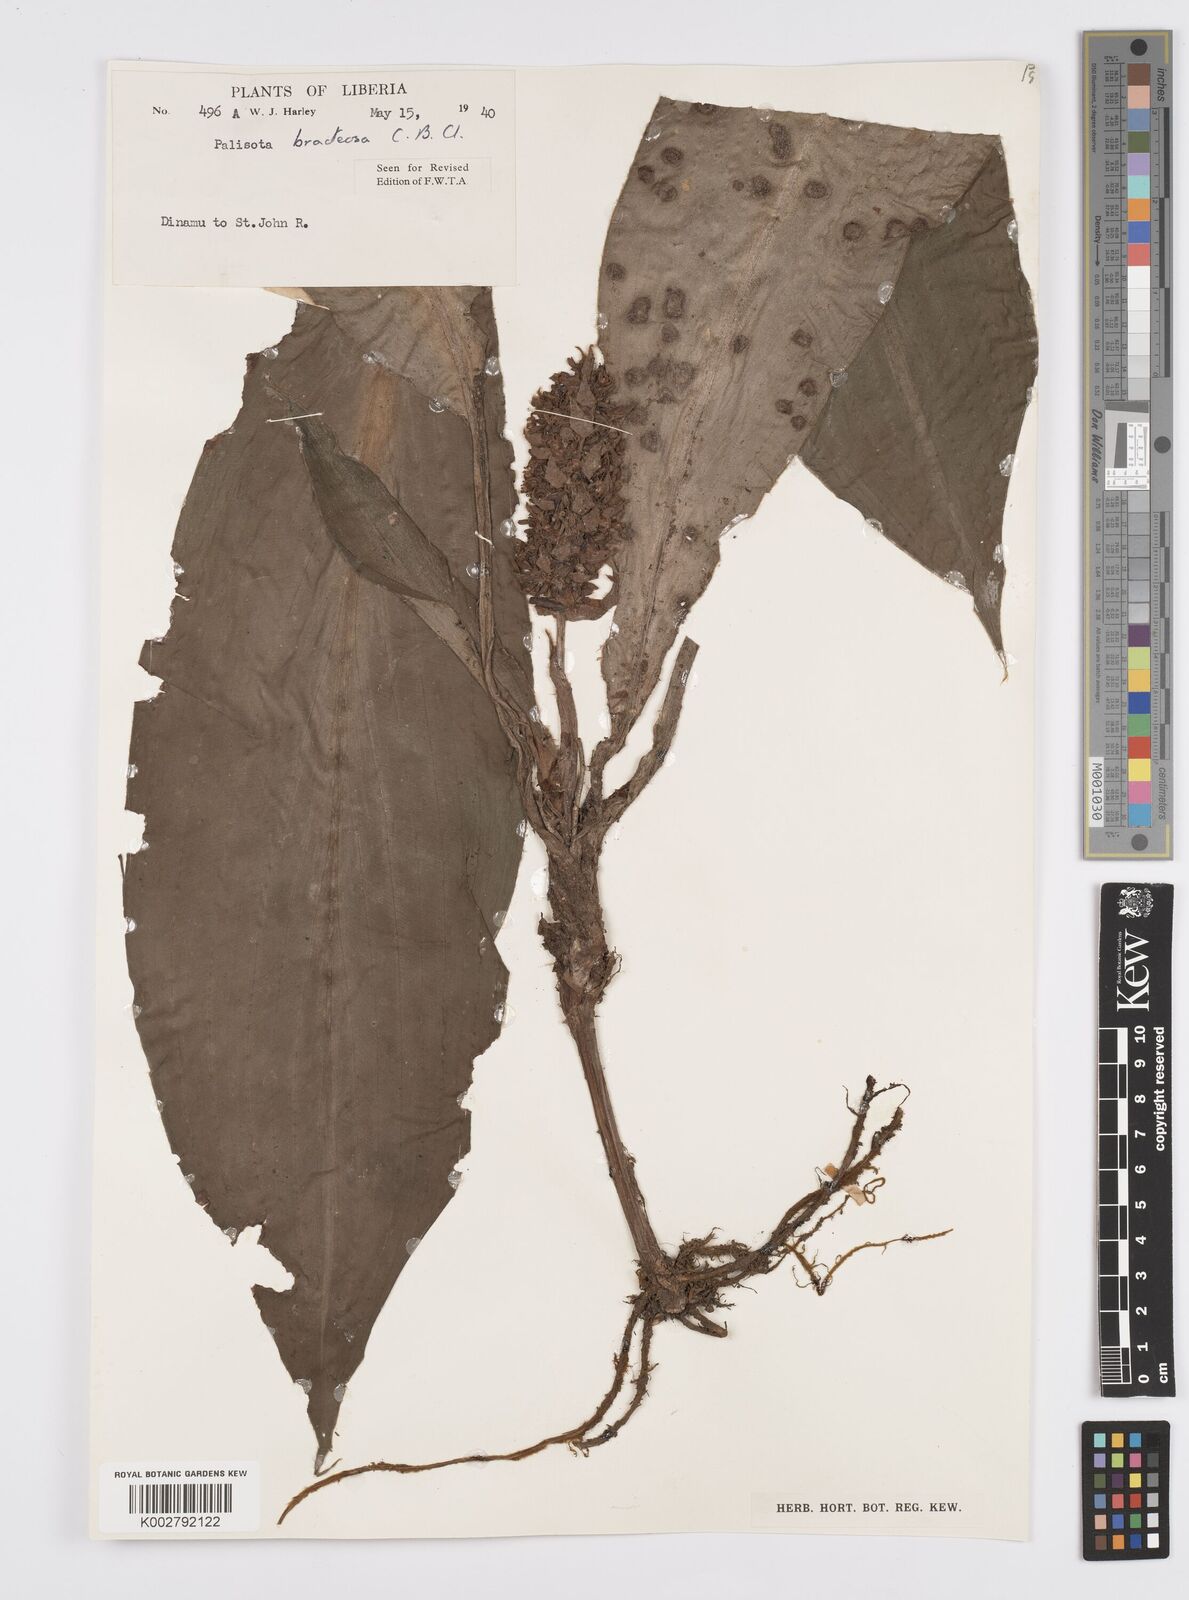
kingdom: Plantae
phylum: Tracheophyta
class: Liliopsida
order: Commelinales
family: Commelinaceae
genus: Palisota
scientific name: Palisota bracteosa
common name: Palisota
